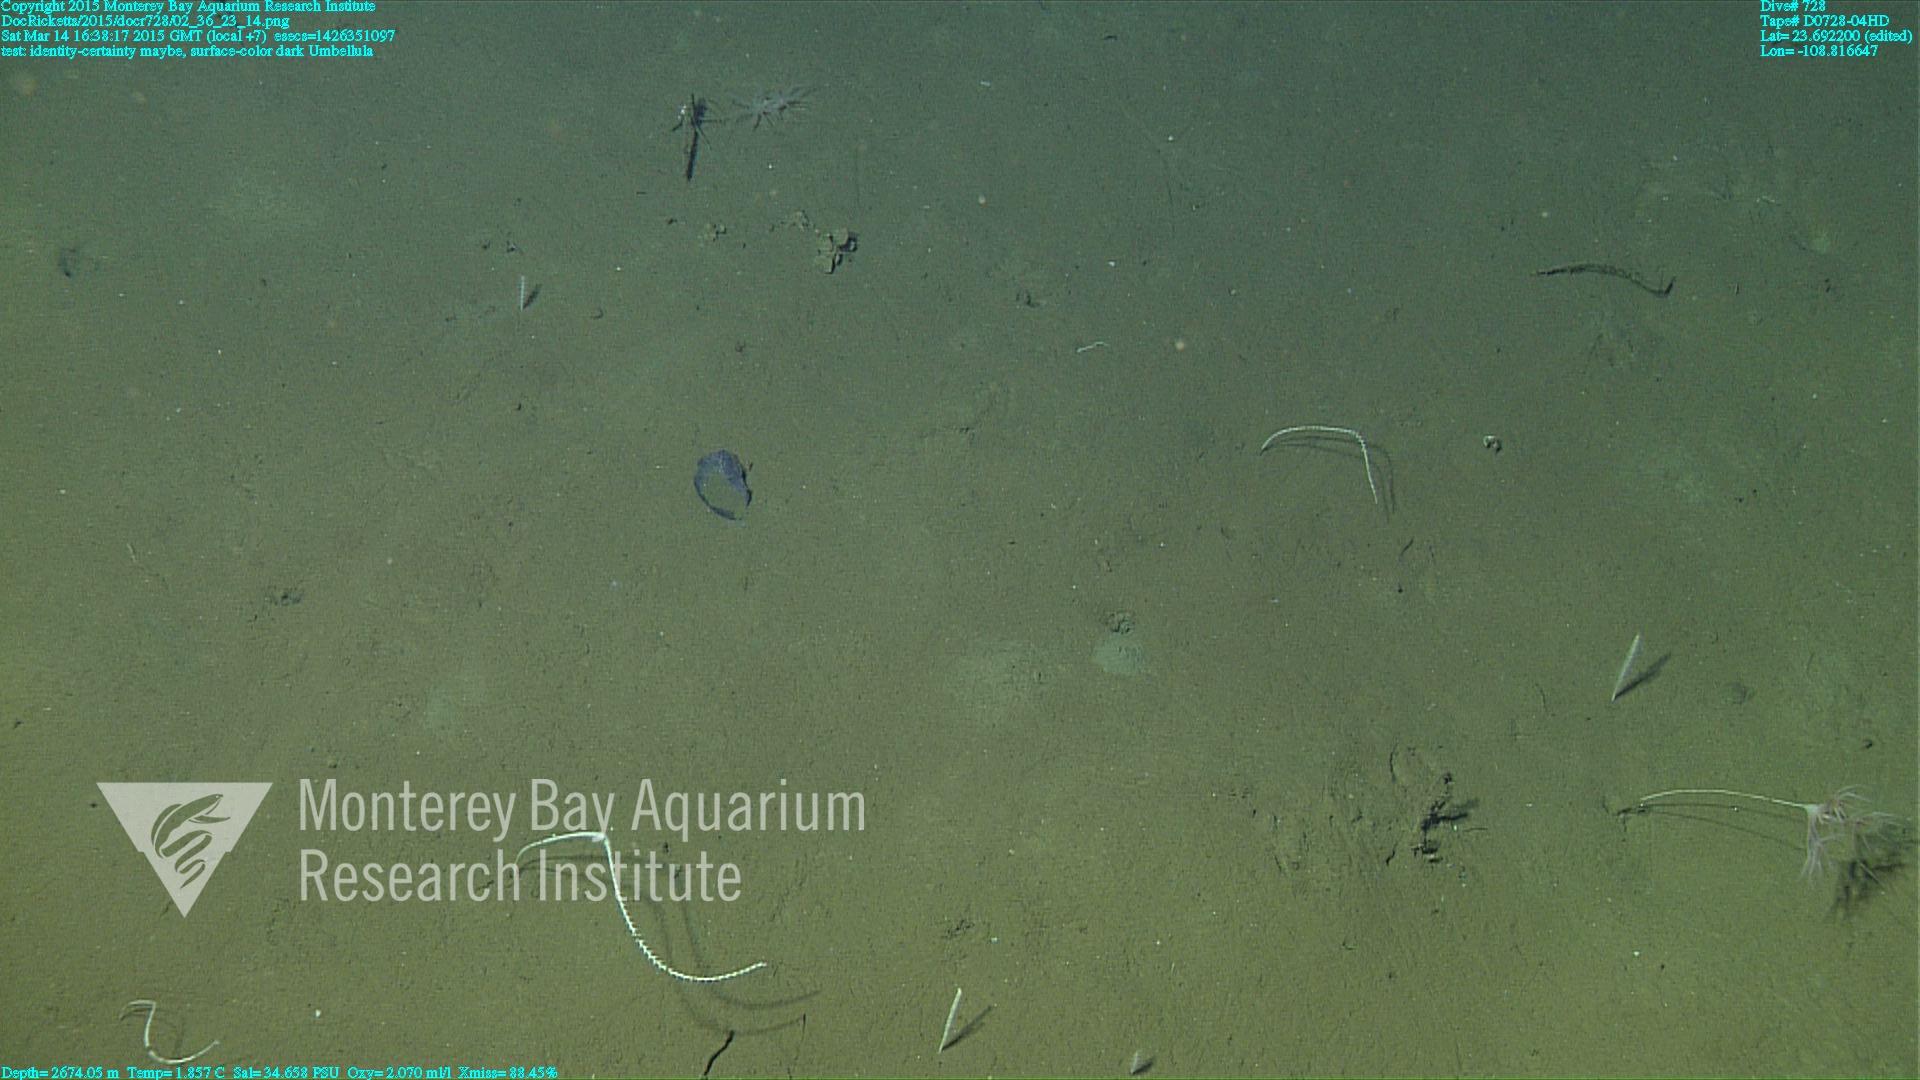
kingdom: Animalia
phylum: Cnidaria
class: Anthozoa
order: Scleralcyonacea
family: Umbellulidae
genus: Umbellula
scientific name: Umbellula
